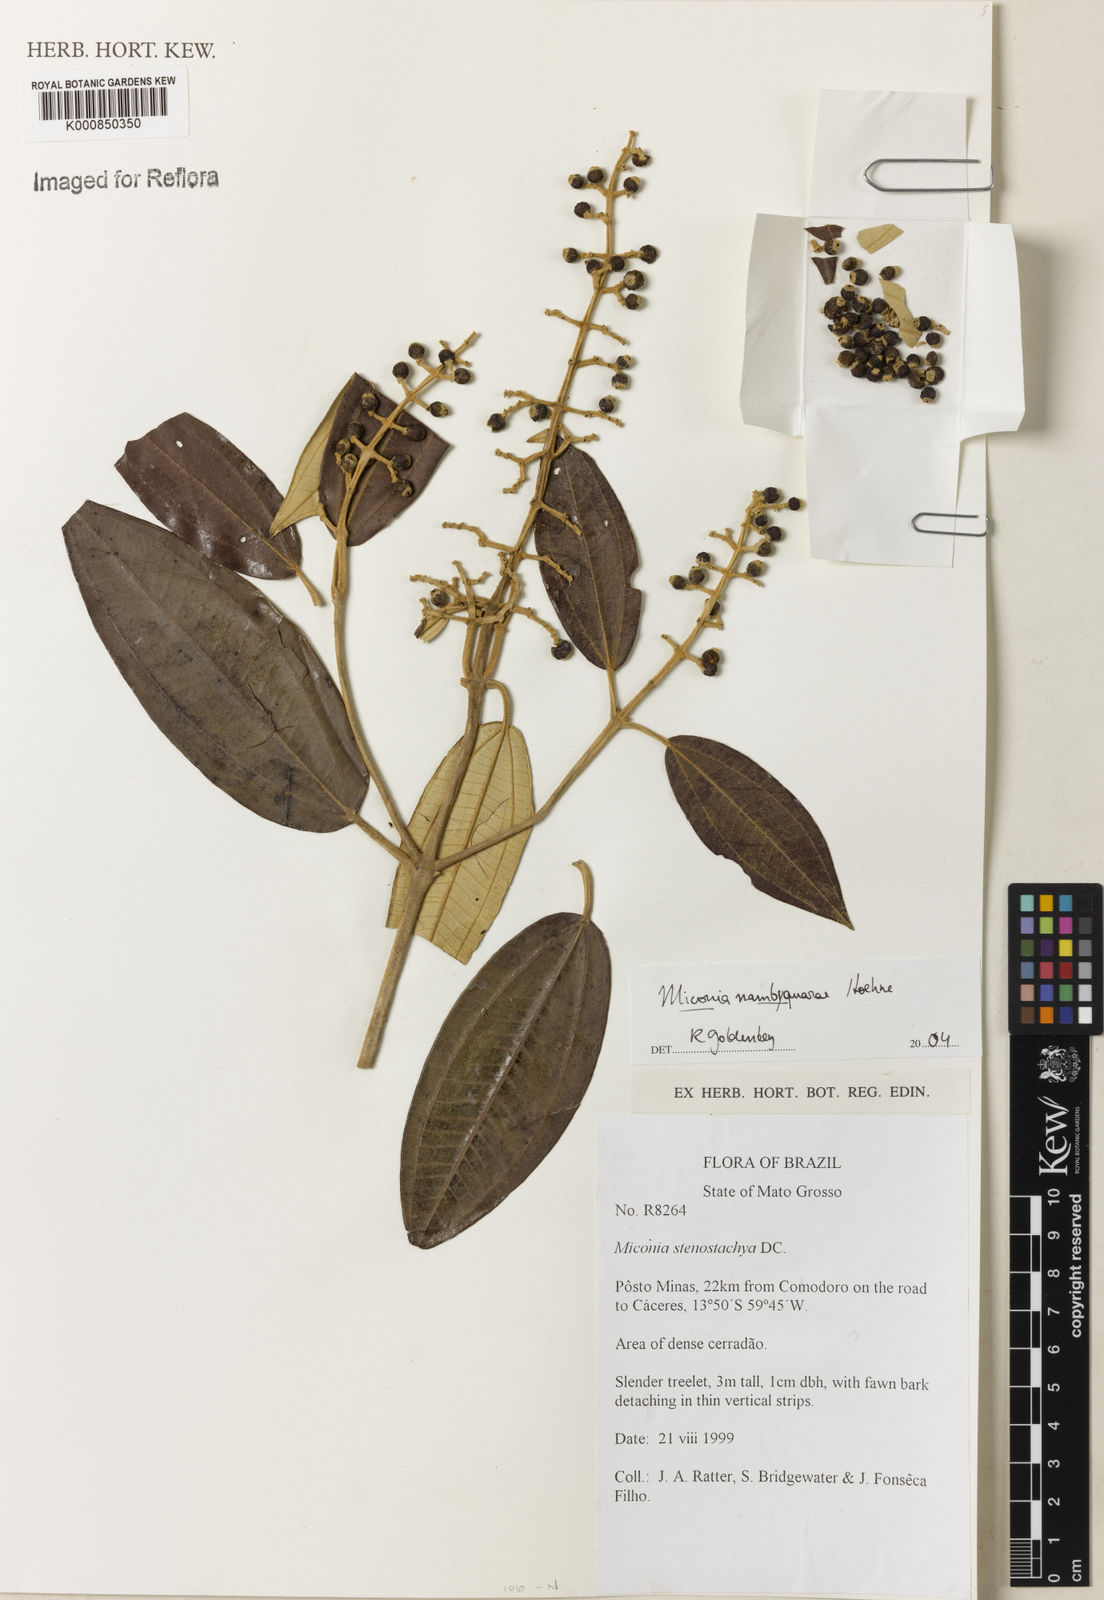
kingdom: Plantae
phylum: Tracheophyta
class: Magnoliopsida
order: Myrtales
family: Melastomataceae
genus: Miconia
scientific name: Miconia nambyquarae
